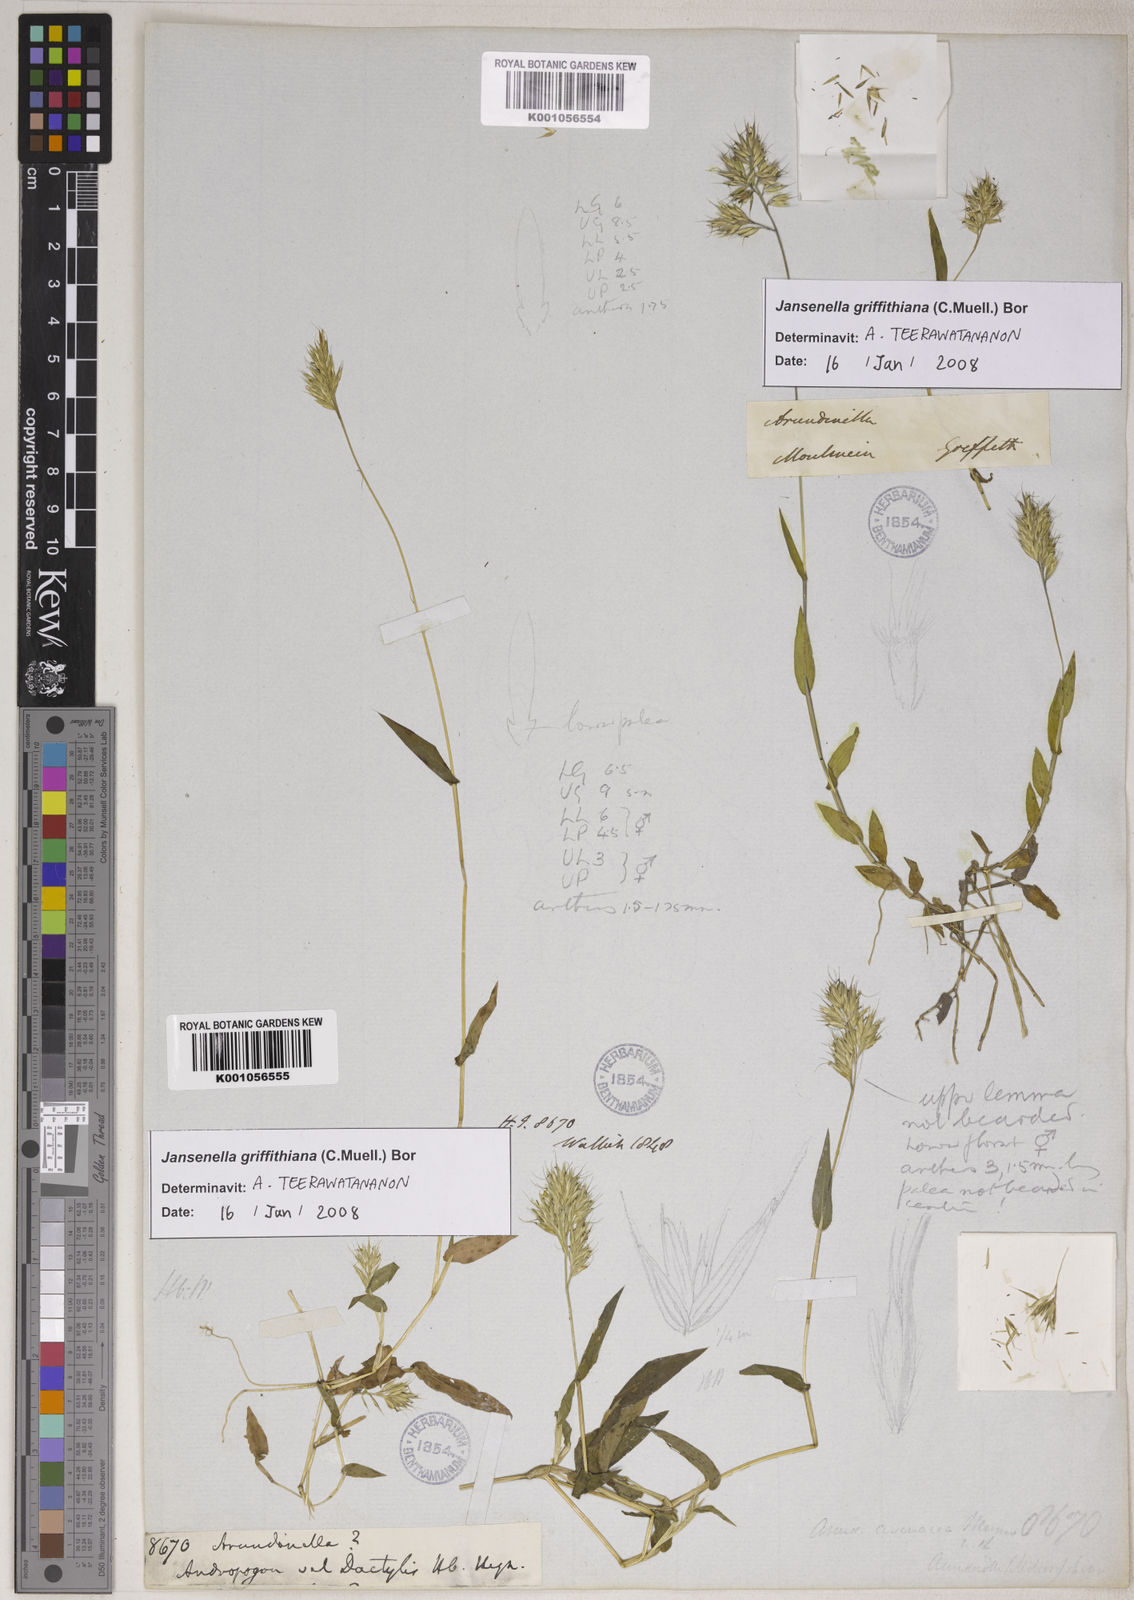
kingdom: Plantae
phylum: Tracheophyta
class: Liliopsida
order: Poales
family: Poaceae
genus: Jansenella
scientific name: Jansenella griffithiana
